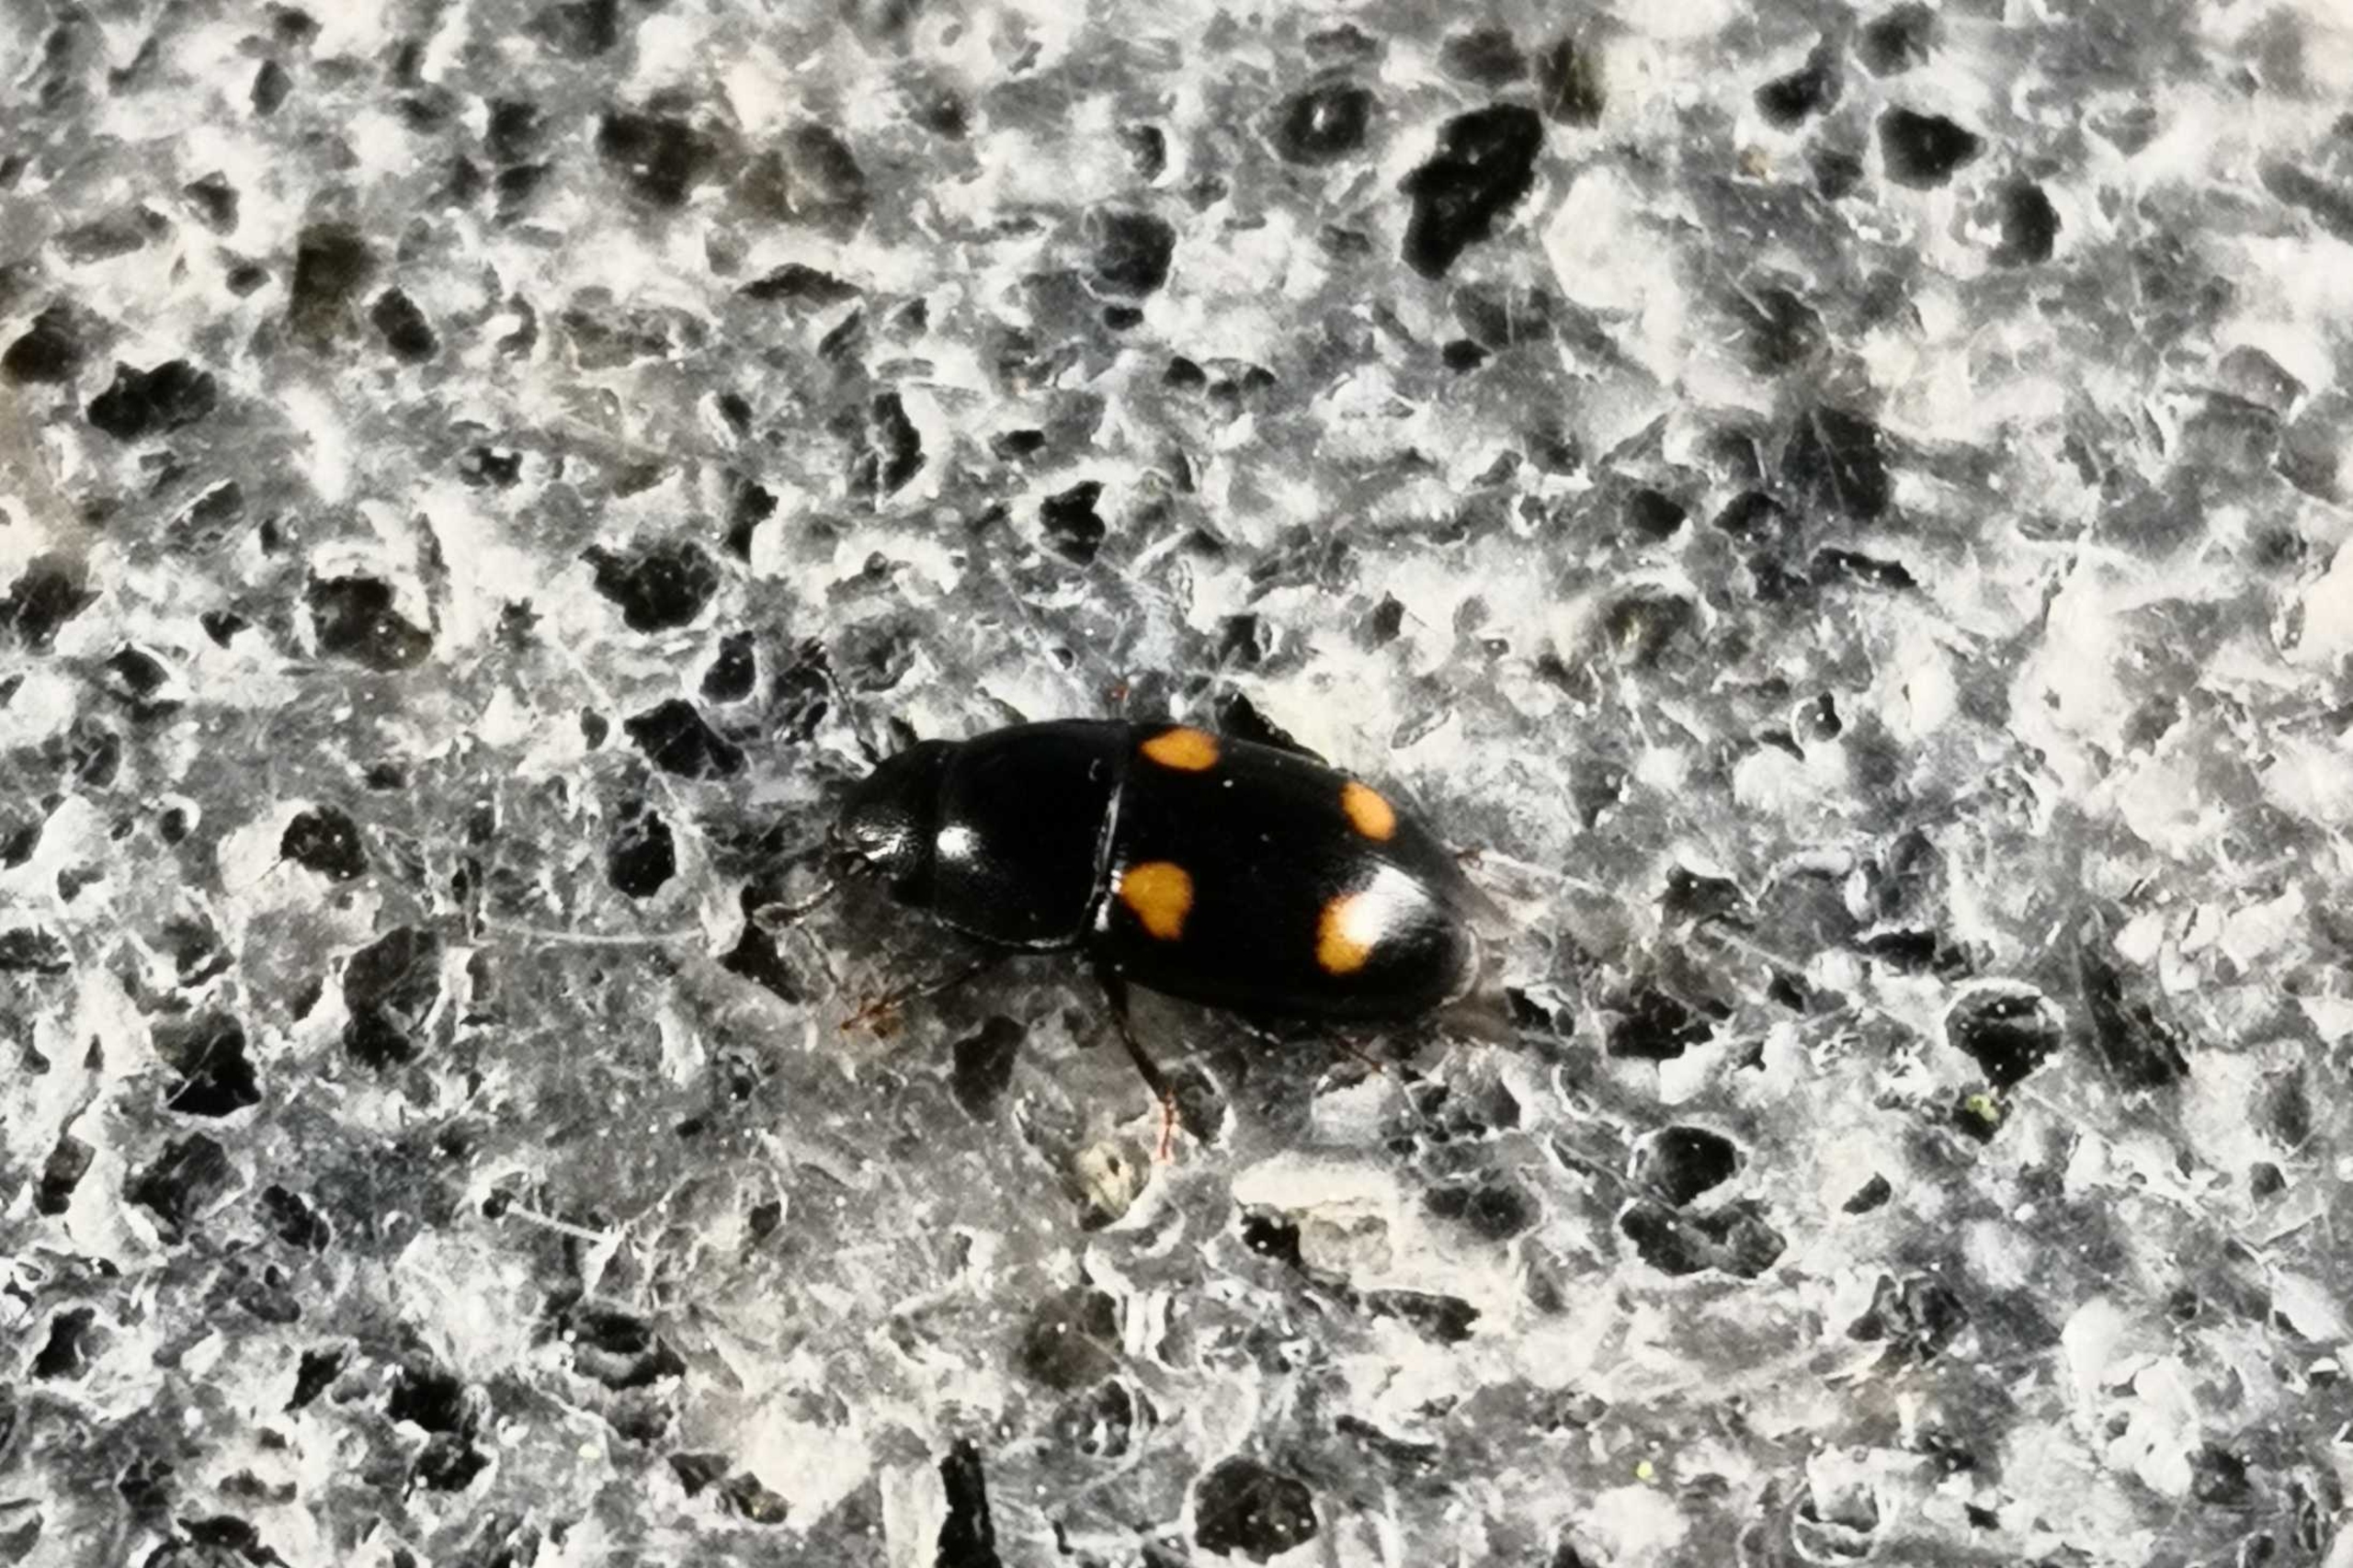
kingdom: Animalia
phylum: Arthropoda
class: Insecta
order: Coleoptera
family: Nitidulidae
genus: Glischrochilus
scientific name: Glischrochilus hortensis
